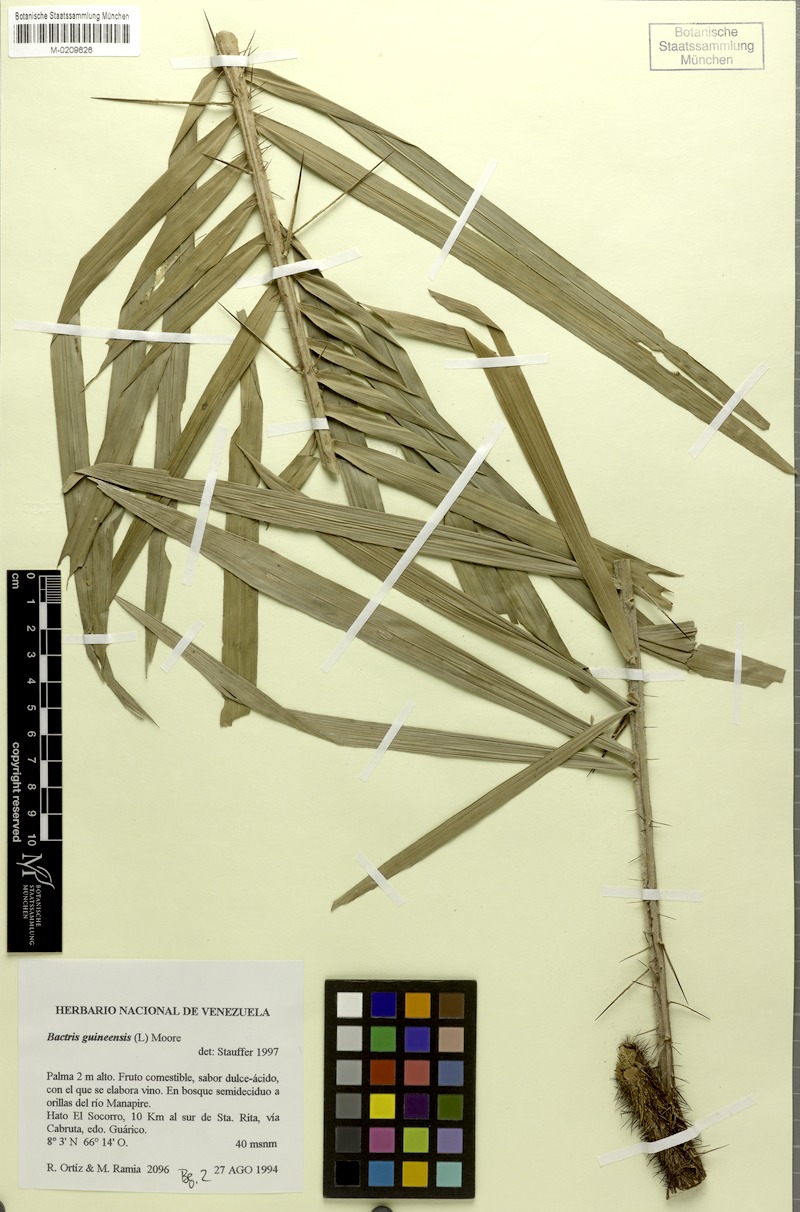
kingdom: Plantae
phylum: Tracheophyta
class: Liliopsida
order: Arecales
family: Arecaceae
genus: Bactris
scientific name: Bactris guineensis
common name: Tobago cane
